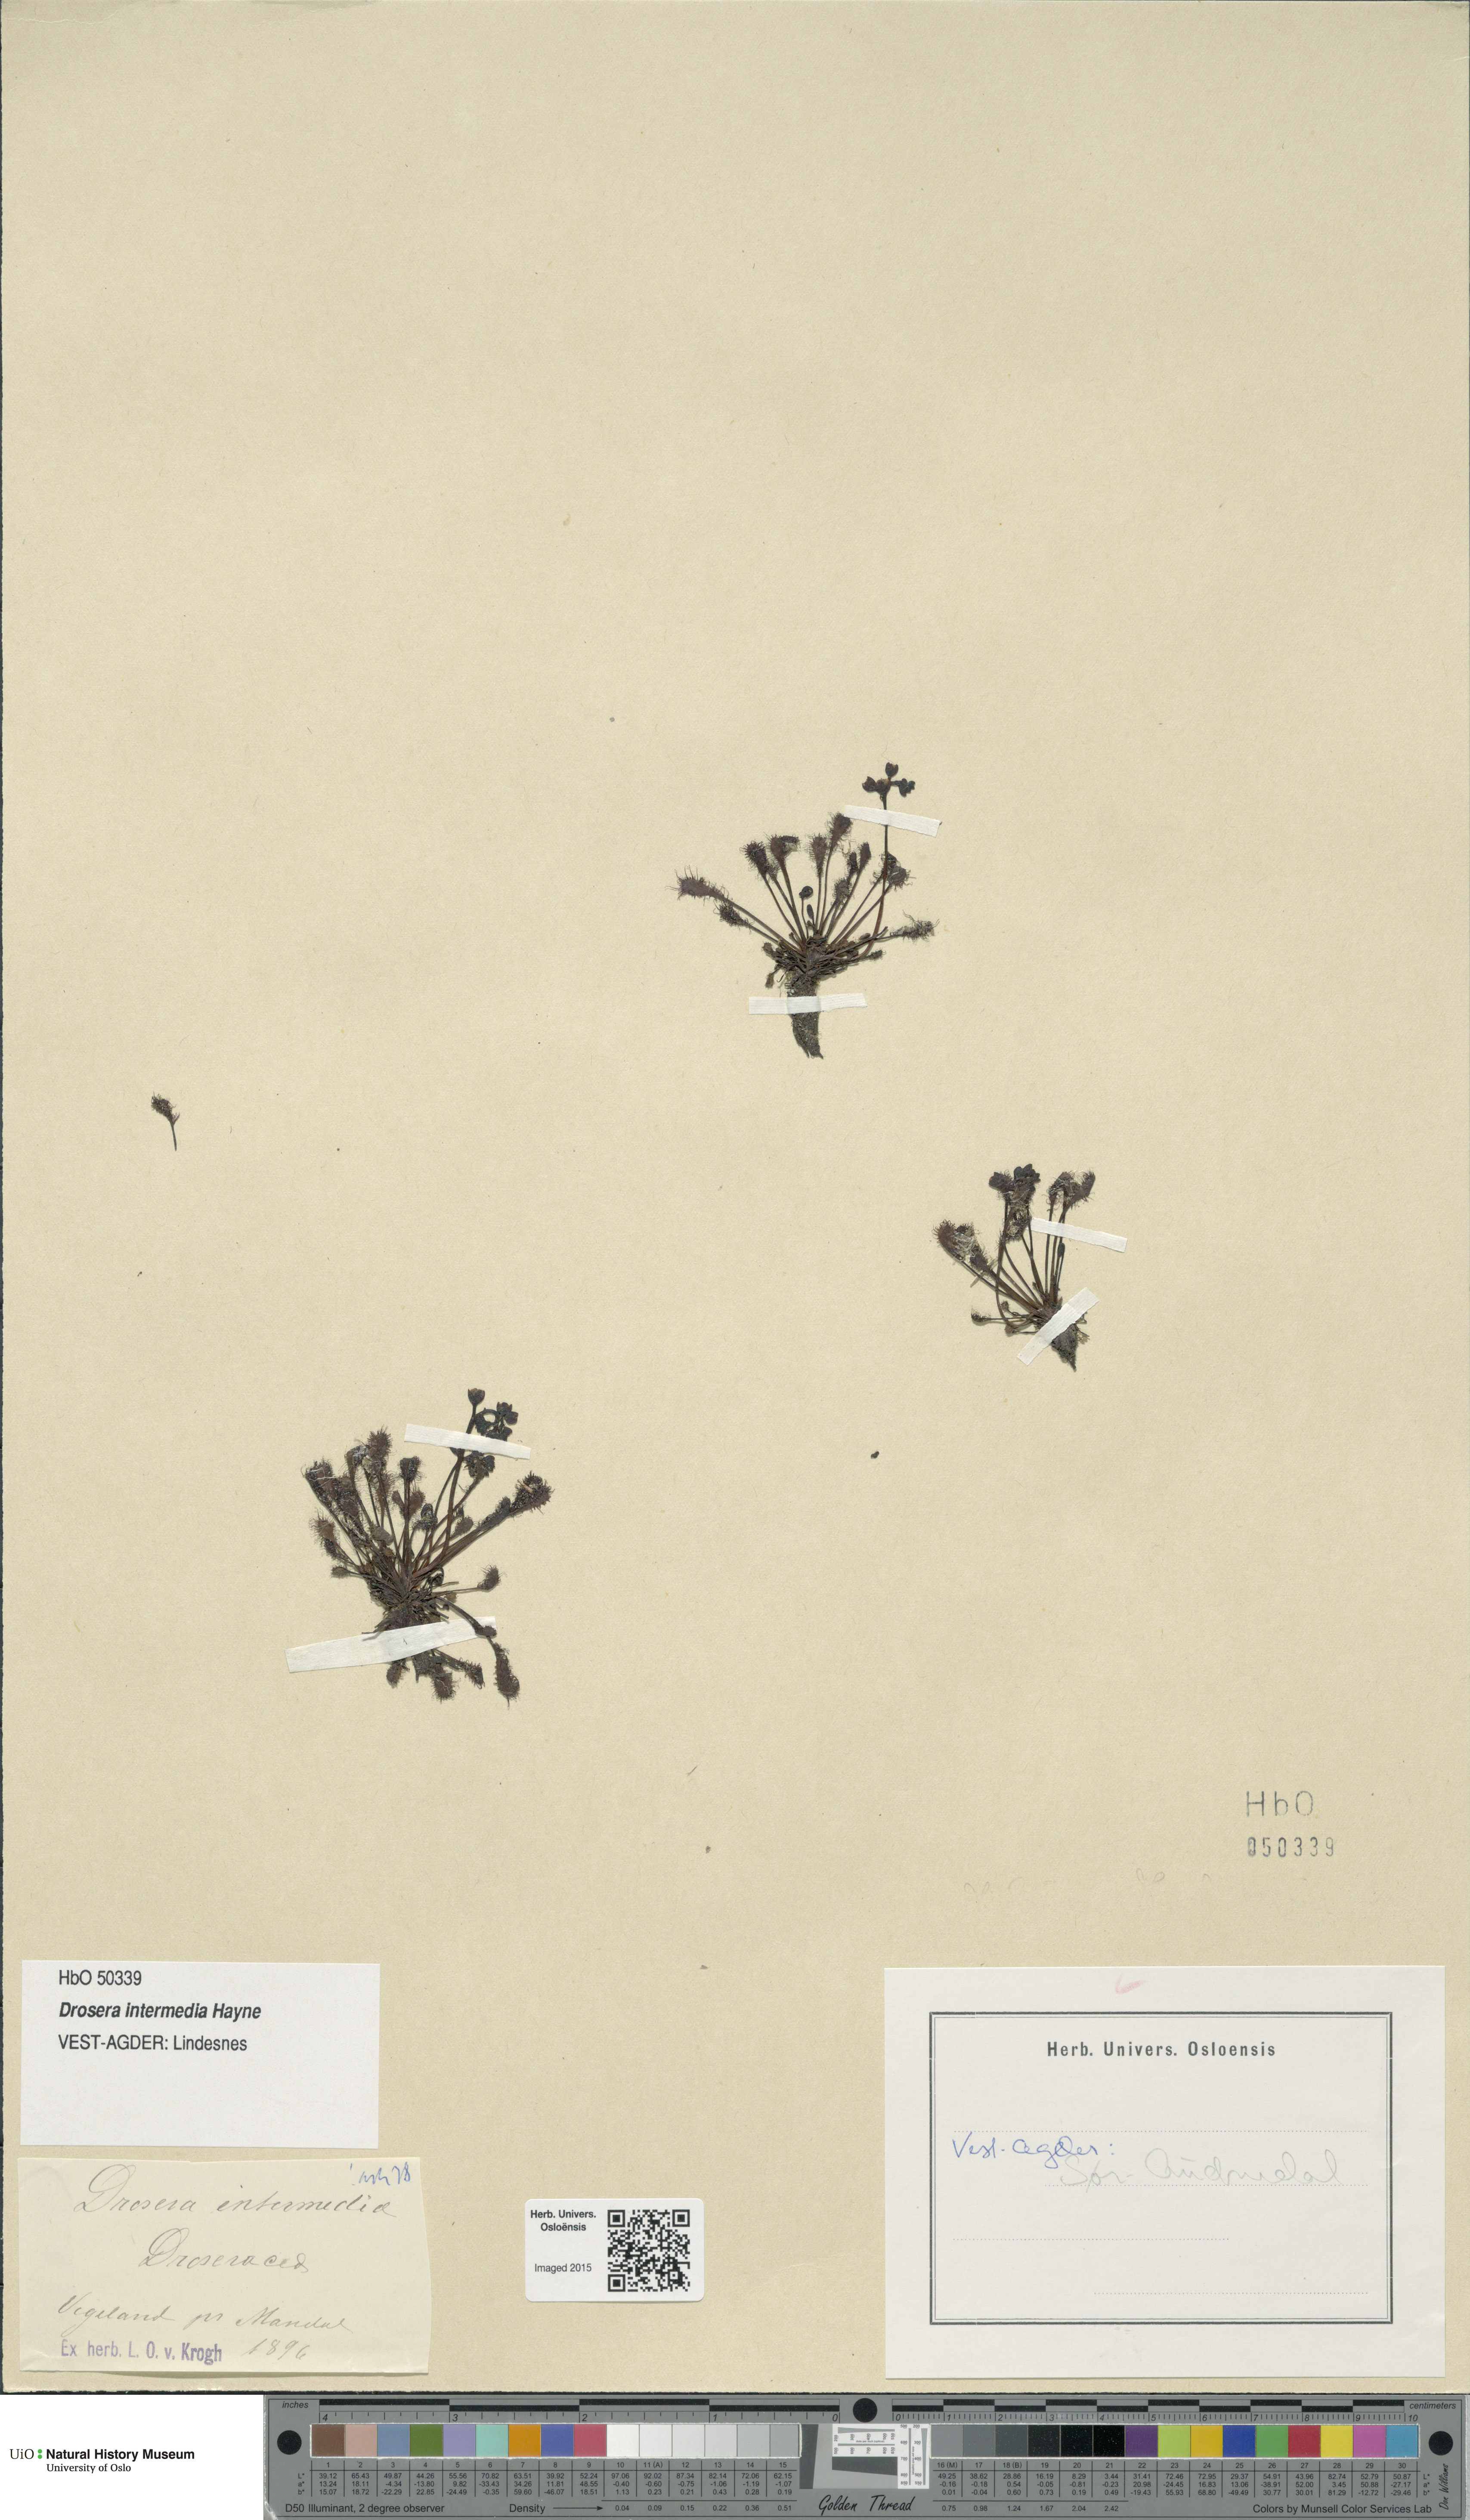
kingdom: Plantae
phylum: Tracheophyta
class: Magnoliopsida
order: Caryophyllales
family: Droseraceae
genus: Drosera
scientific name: Drosera intermedia
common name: Oblong-leaved sundew
